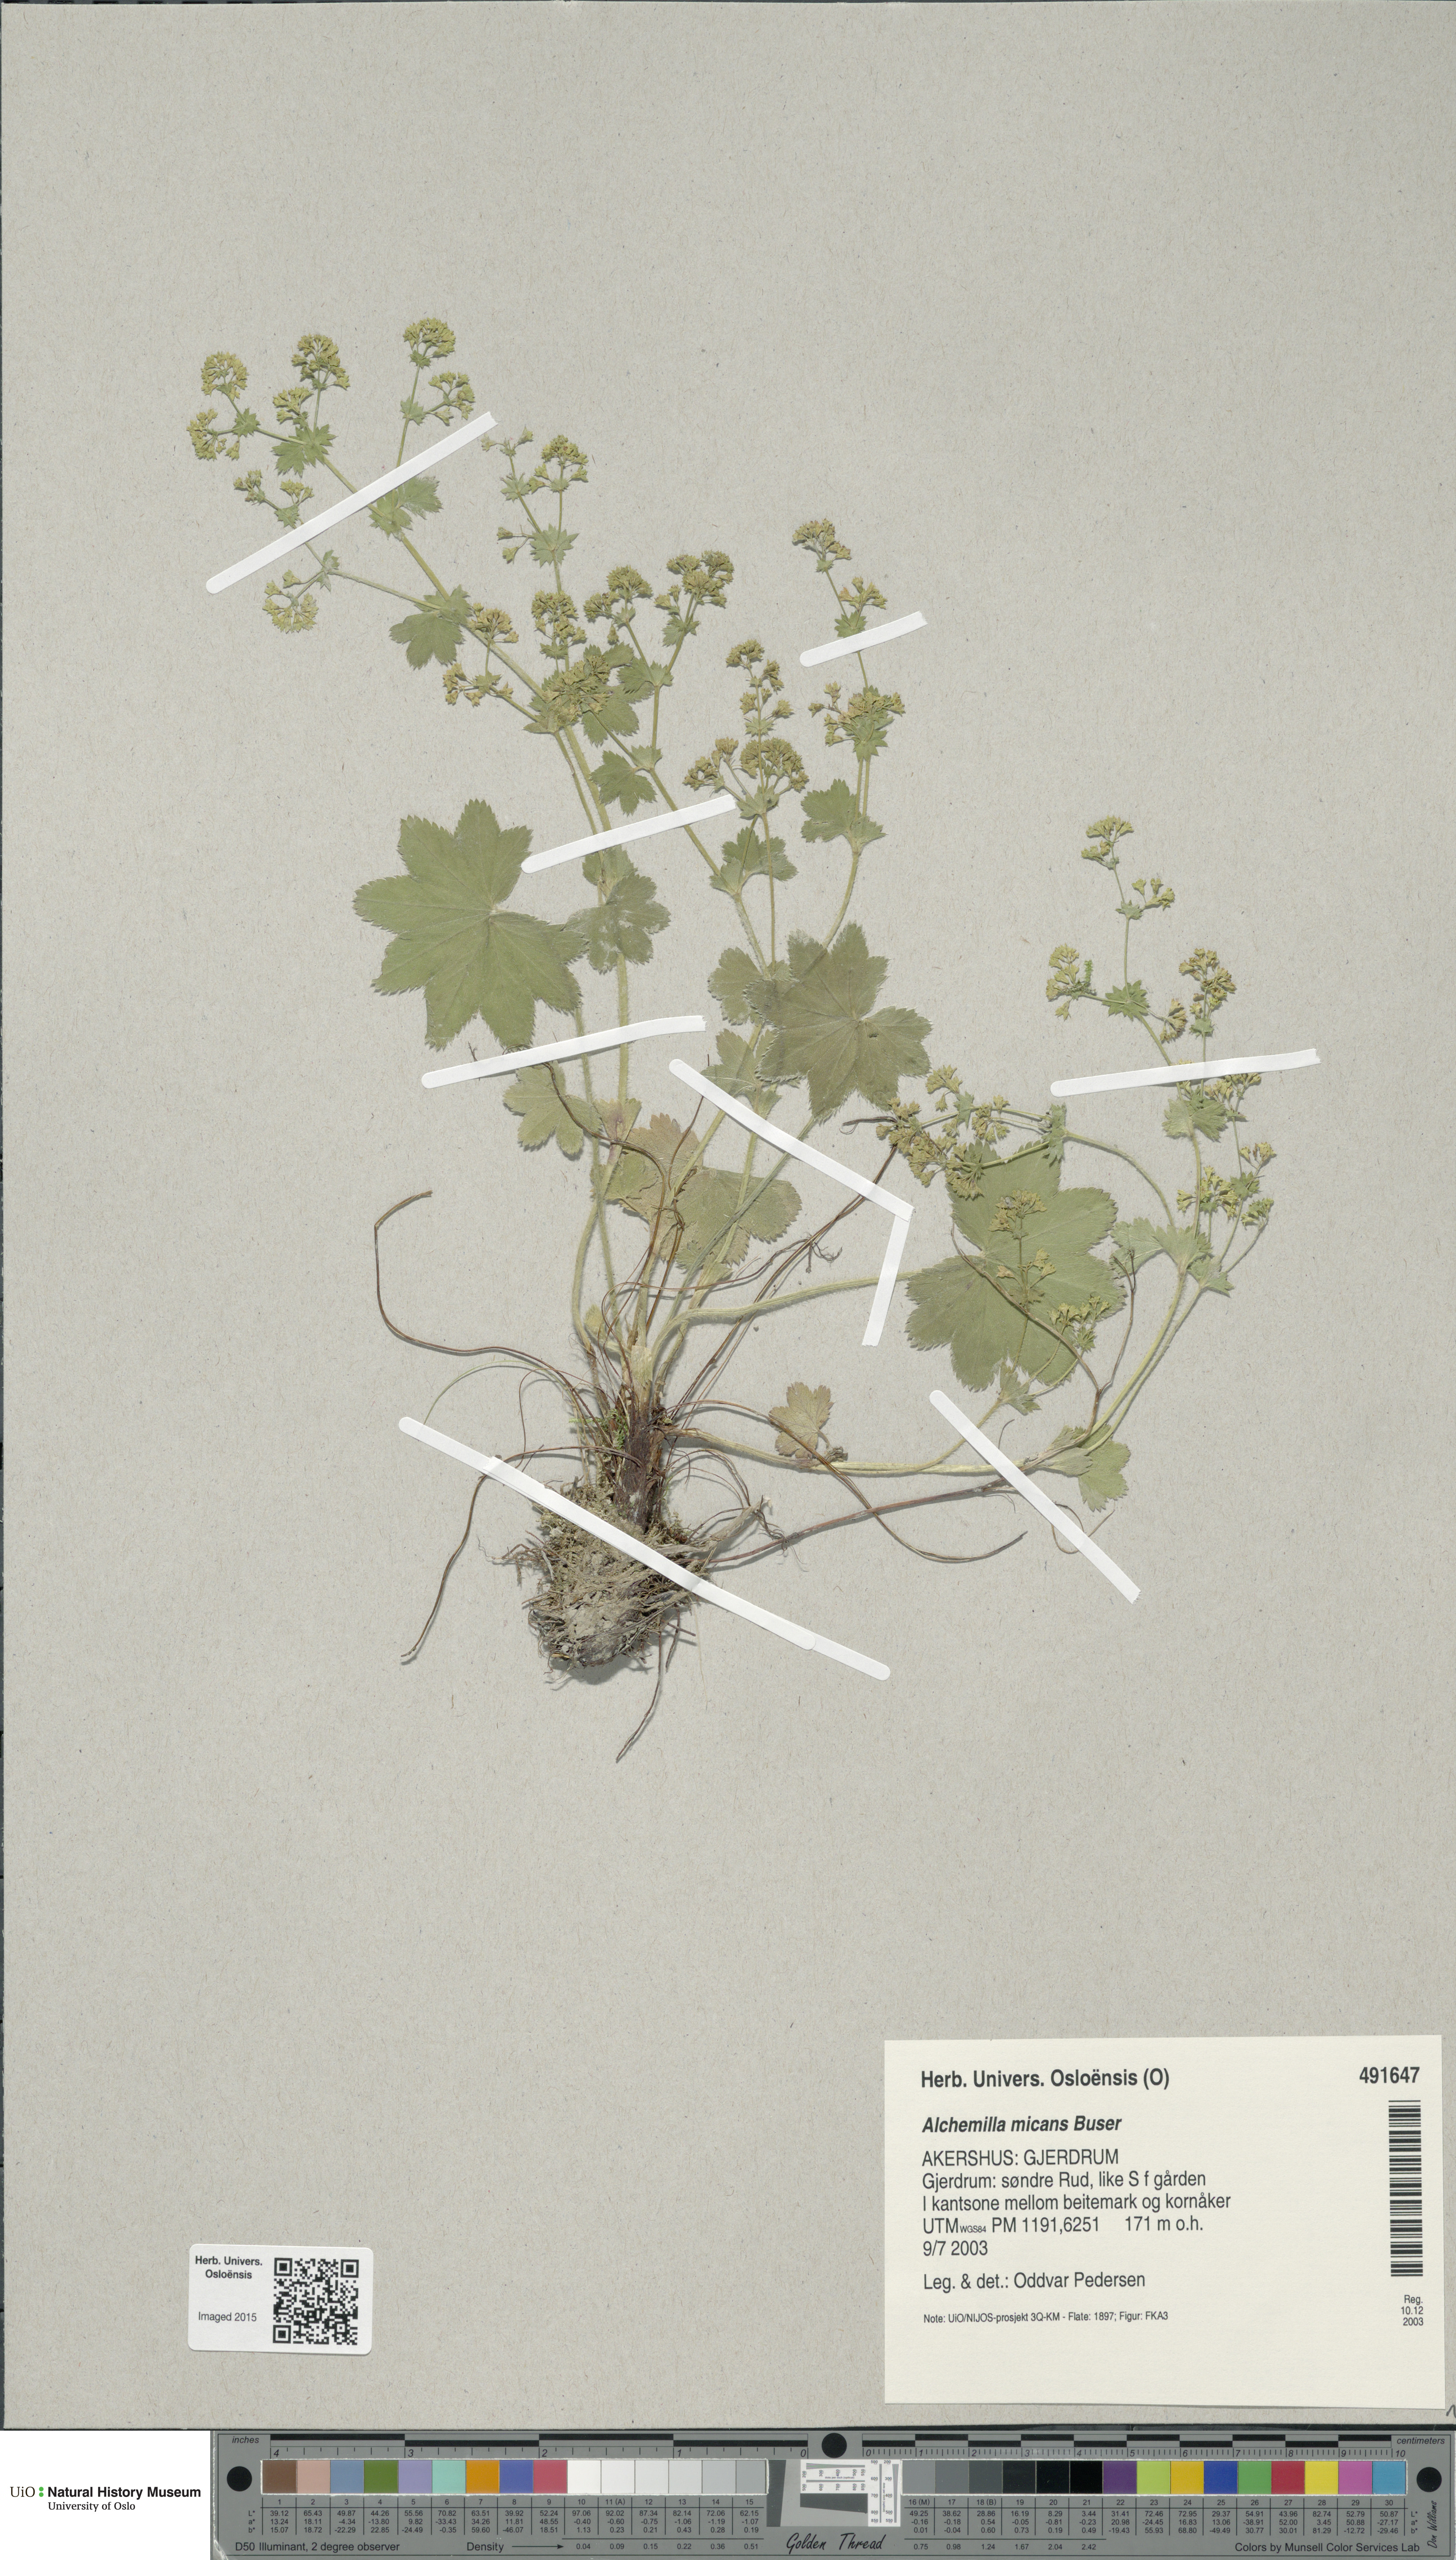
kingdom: Plantae
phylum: Tracheophyta
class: Magnoliopsida
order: Rosales
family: Rosaceae
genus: Alchemilla
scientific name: Alchemilla micans
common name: Gleaming lady's mantle
